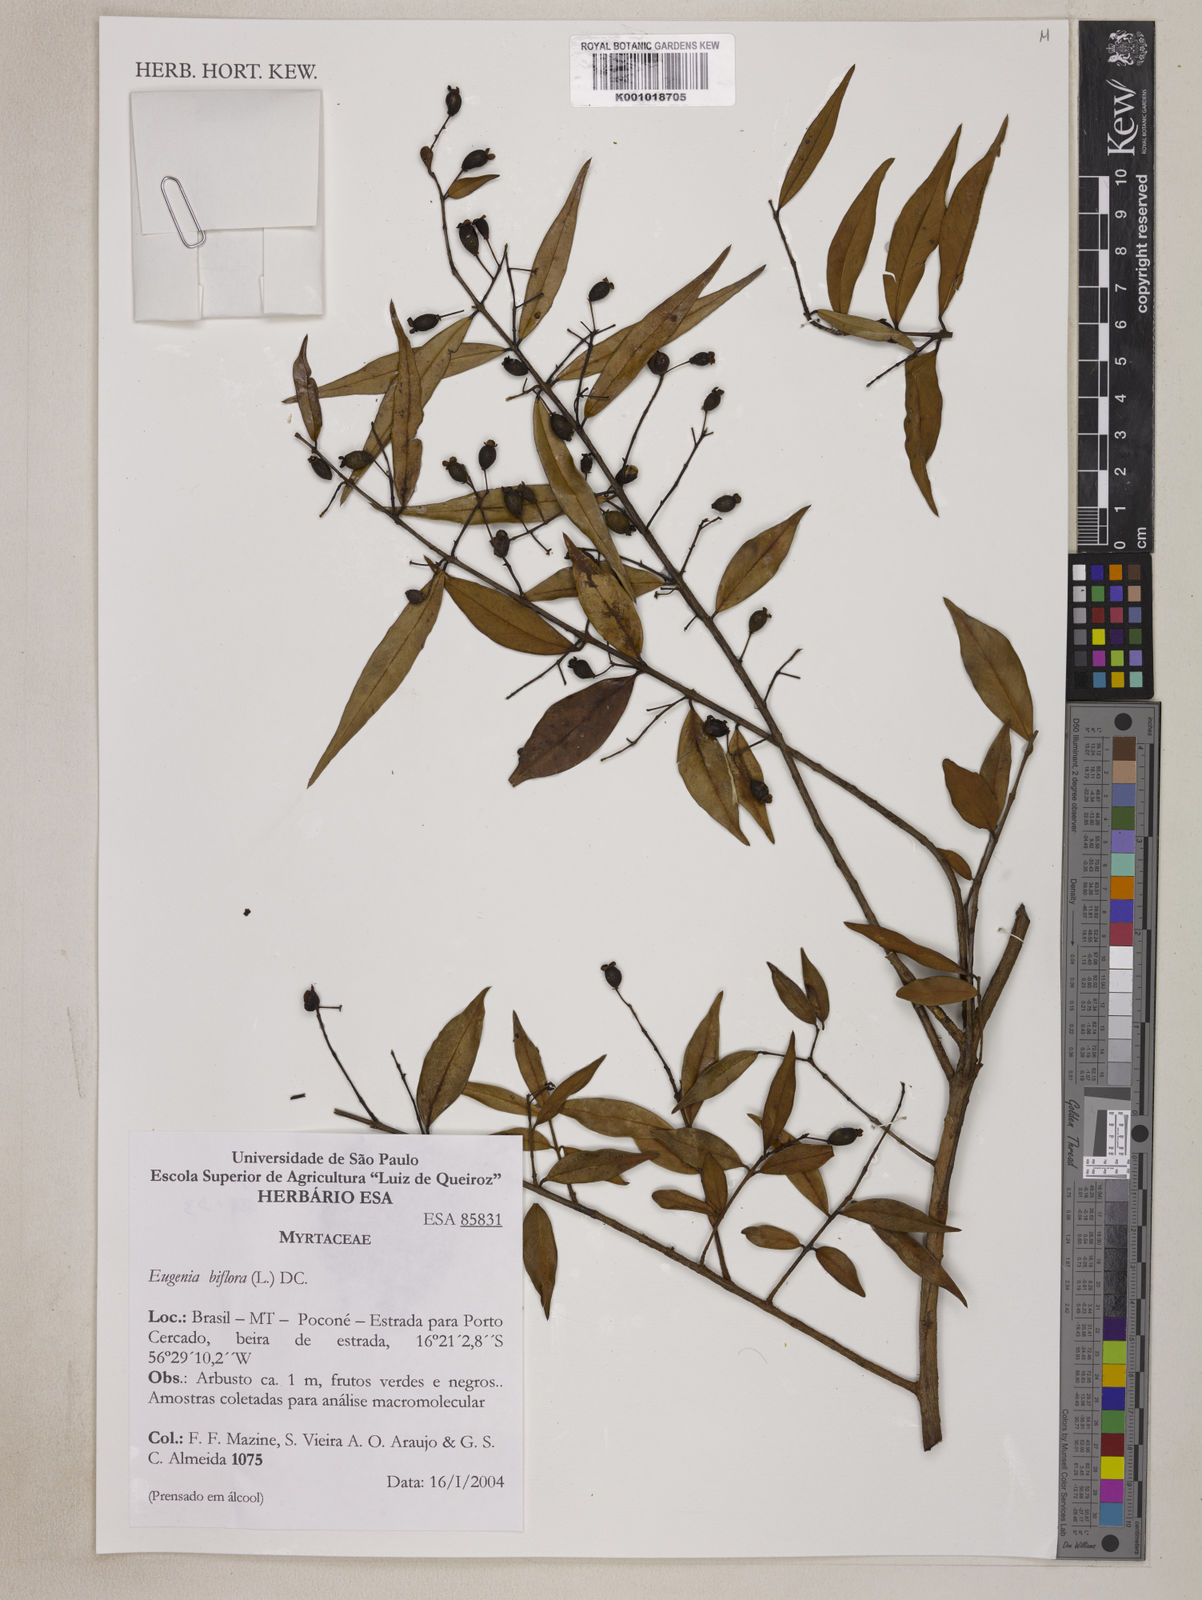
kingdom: Plantae
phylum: Tracheophyta
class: Magnoliopsida
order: Myrtales
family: Myrtaceae
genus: Eugenia
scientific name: Eugenia biflora
